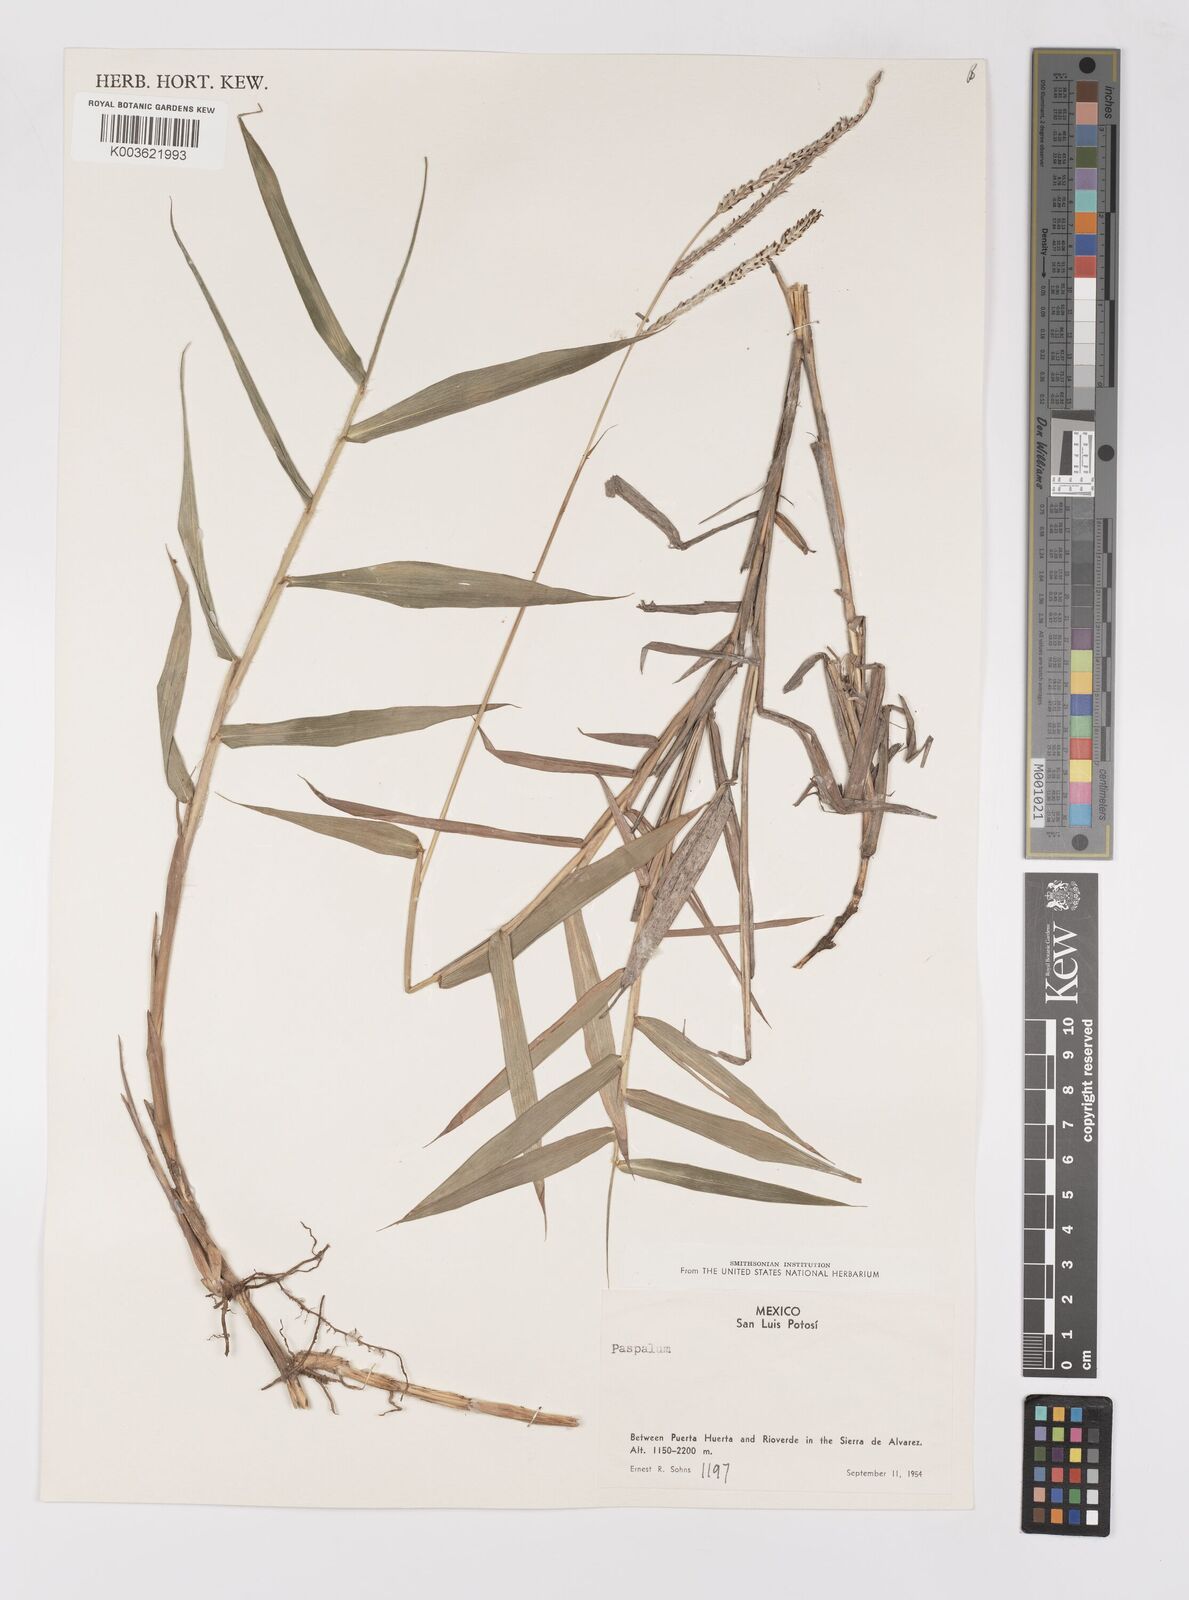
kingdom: Plantae
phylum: Tracheophyta
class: Liliopsida
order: Poales
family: Poaceae
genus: Paspalum
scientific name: Paspalum humboldtianum
